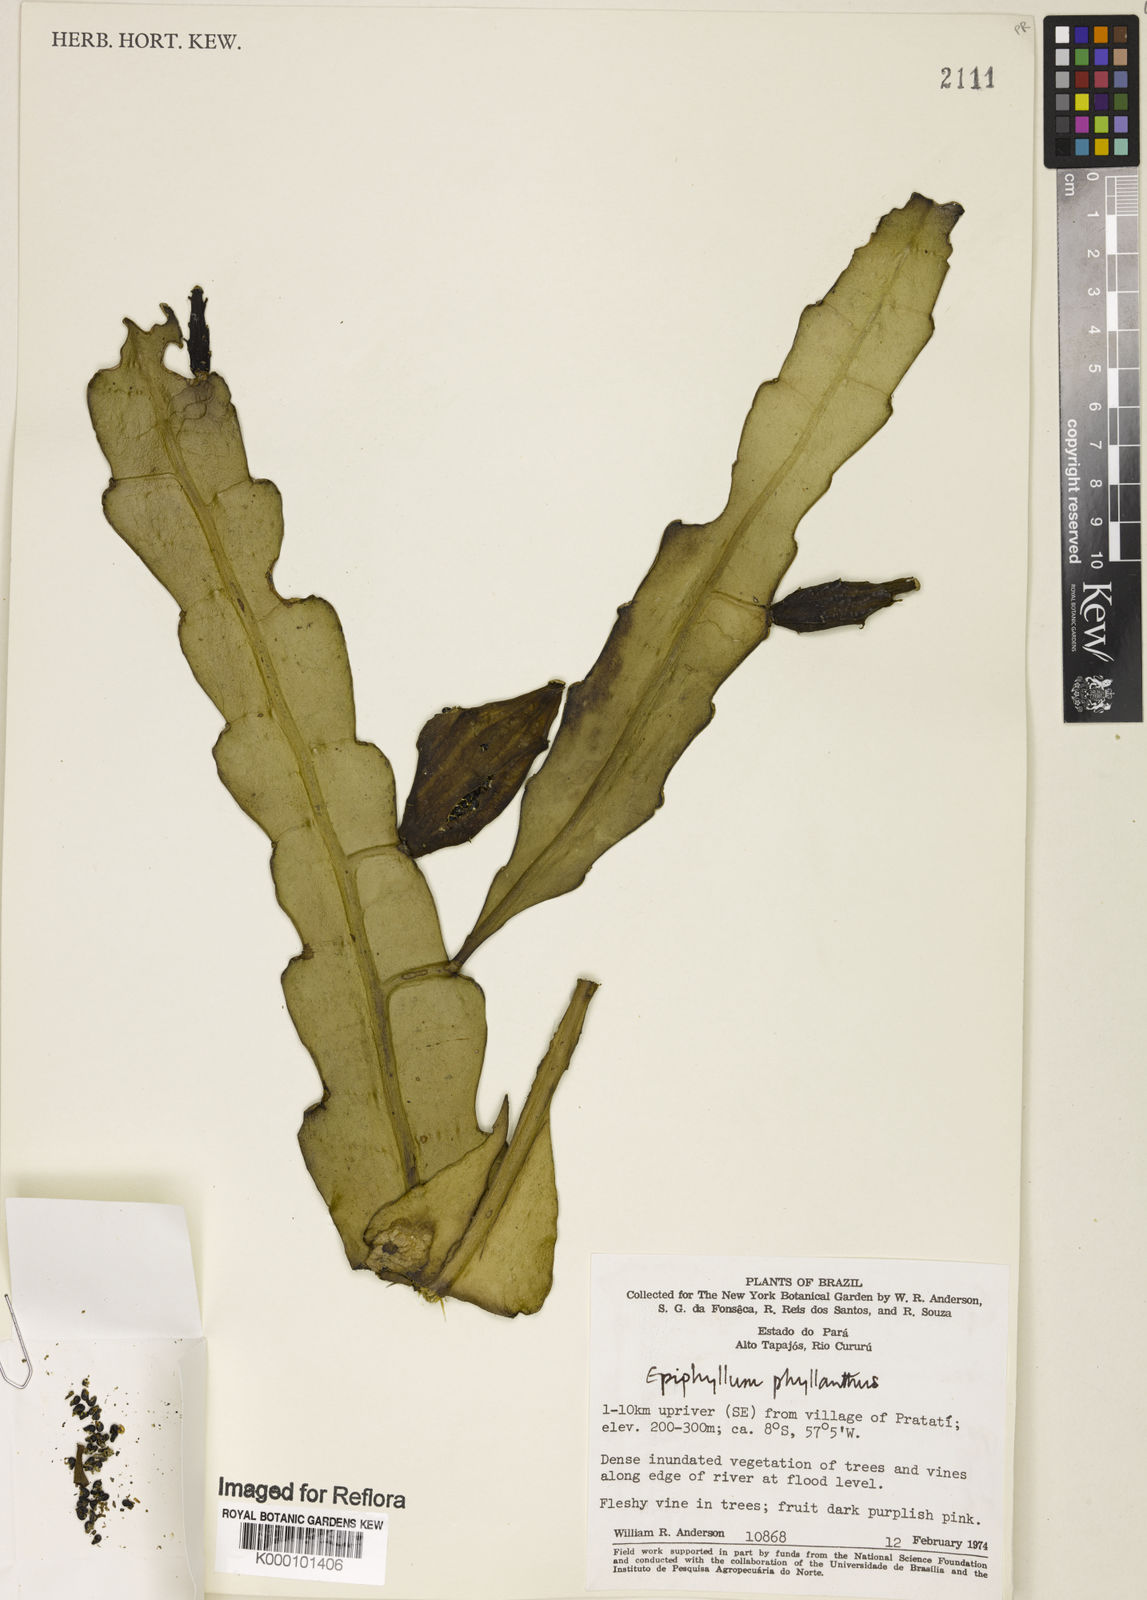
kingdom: Plantae
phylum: Tracheophyta
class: Magnoliopsida
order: Caryophyllales
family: Cactaceae
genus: Epiphyllum
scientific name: Epiphyllum phyllanthus
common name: Climbing cactus
